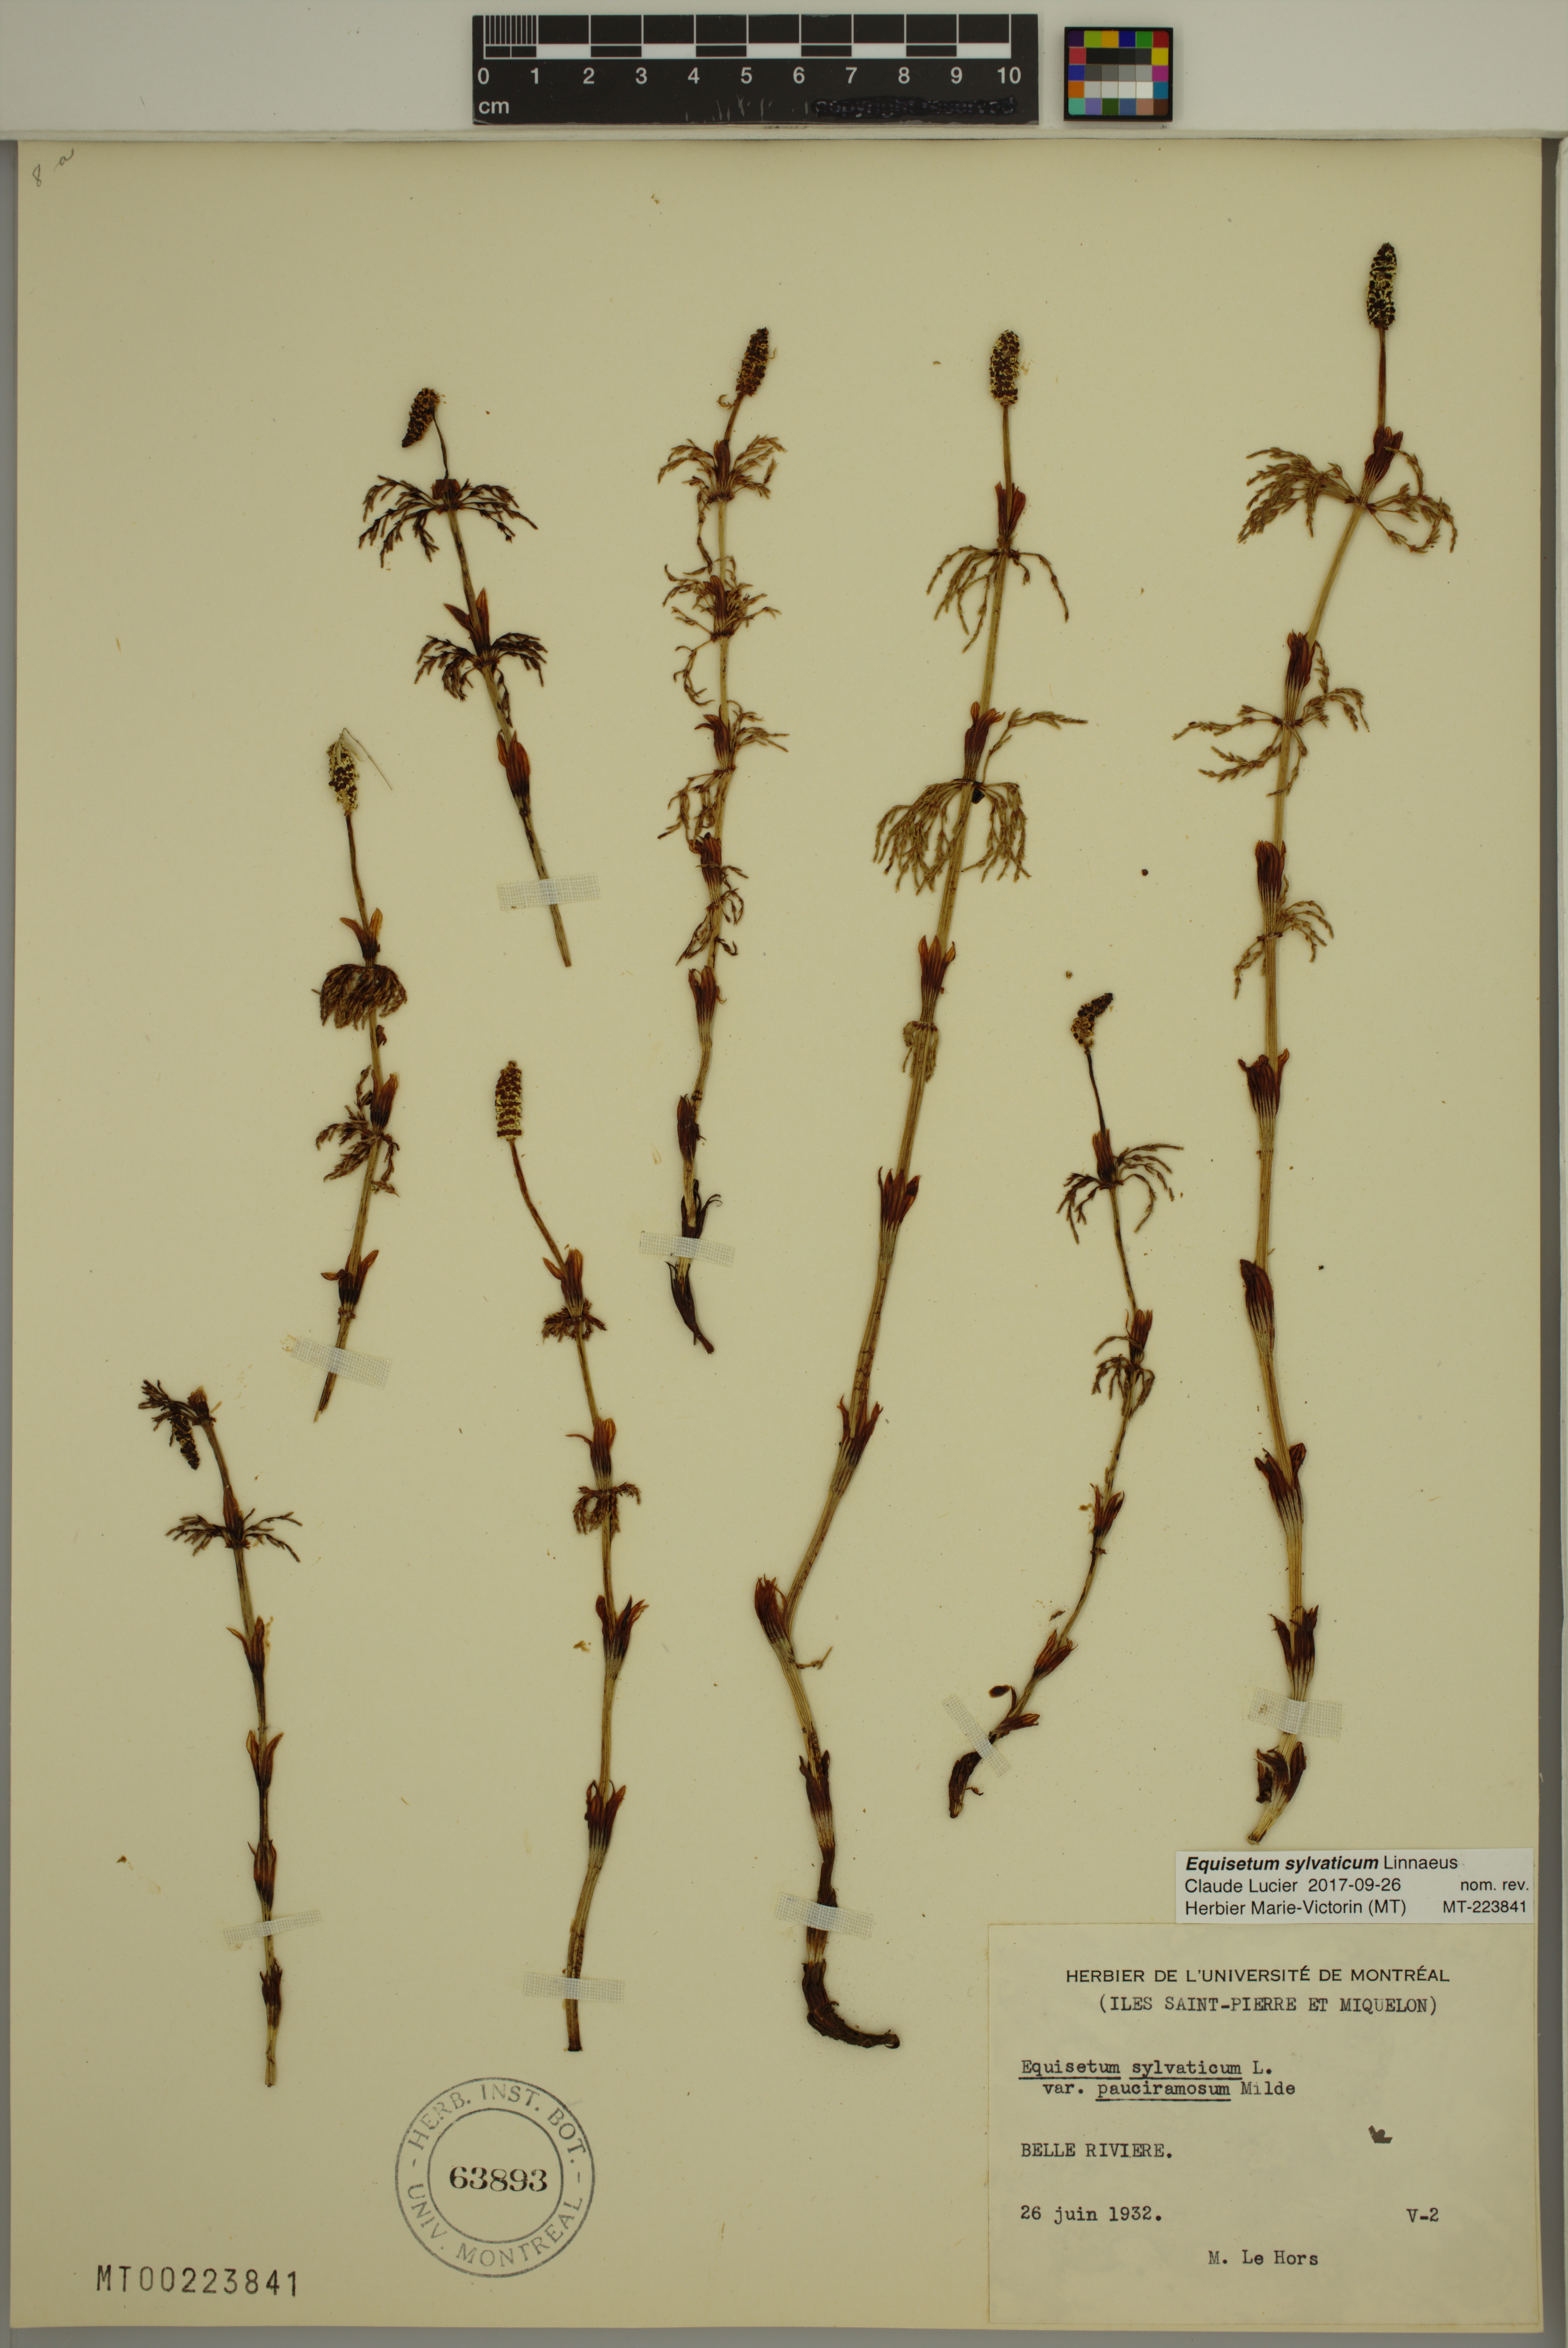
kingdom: Plantae
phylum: Tracheophyta
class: Polypodiopsida
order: Equisetales
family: Equisetaceae
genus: Equisetum
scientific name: Equisetum sylvaticum
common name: Wood horsetail
